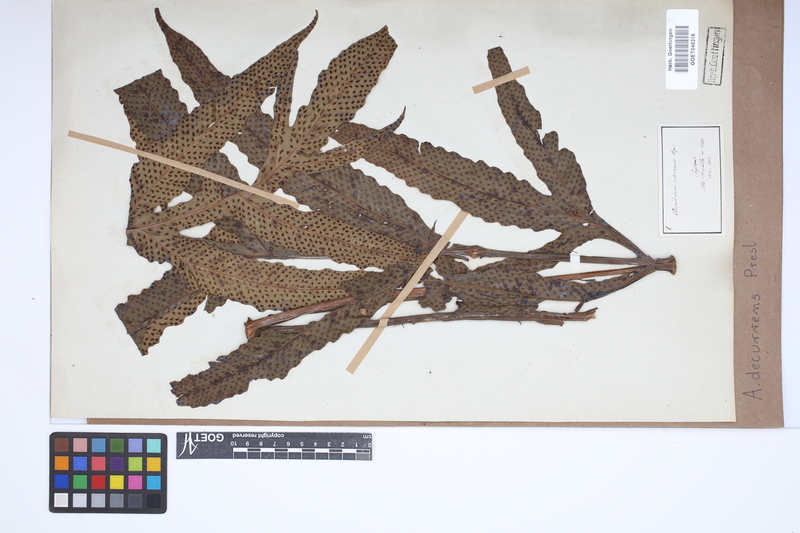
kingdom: Plantae
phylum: Tracheophyta
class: Polypodiopsida
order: Polypodiales
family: Tectariaceae
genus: Tectaria
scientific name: Tectaria decurrens
